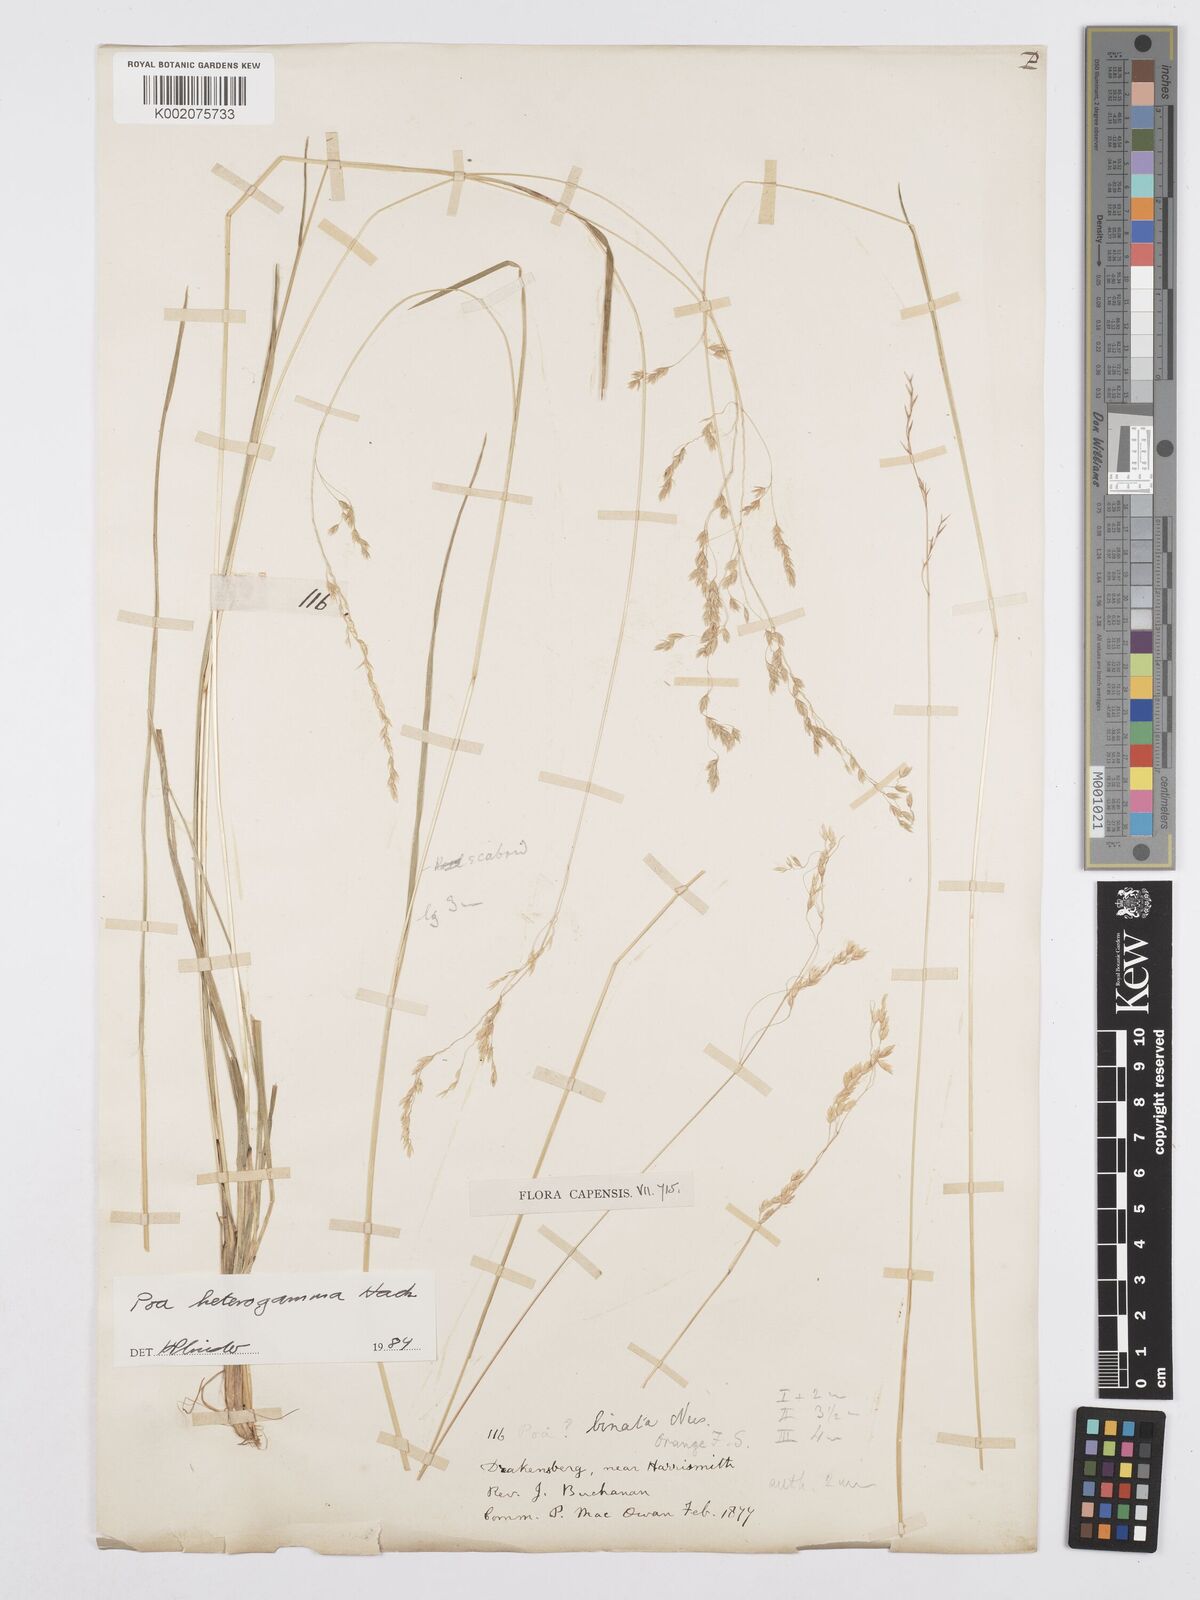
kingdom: Plantae
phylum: Tracheophyta
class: Liliopsida
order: Poales
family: Poaceae
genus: Poa
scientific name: Poa binata
